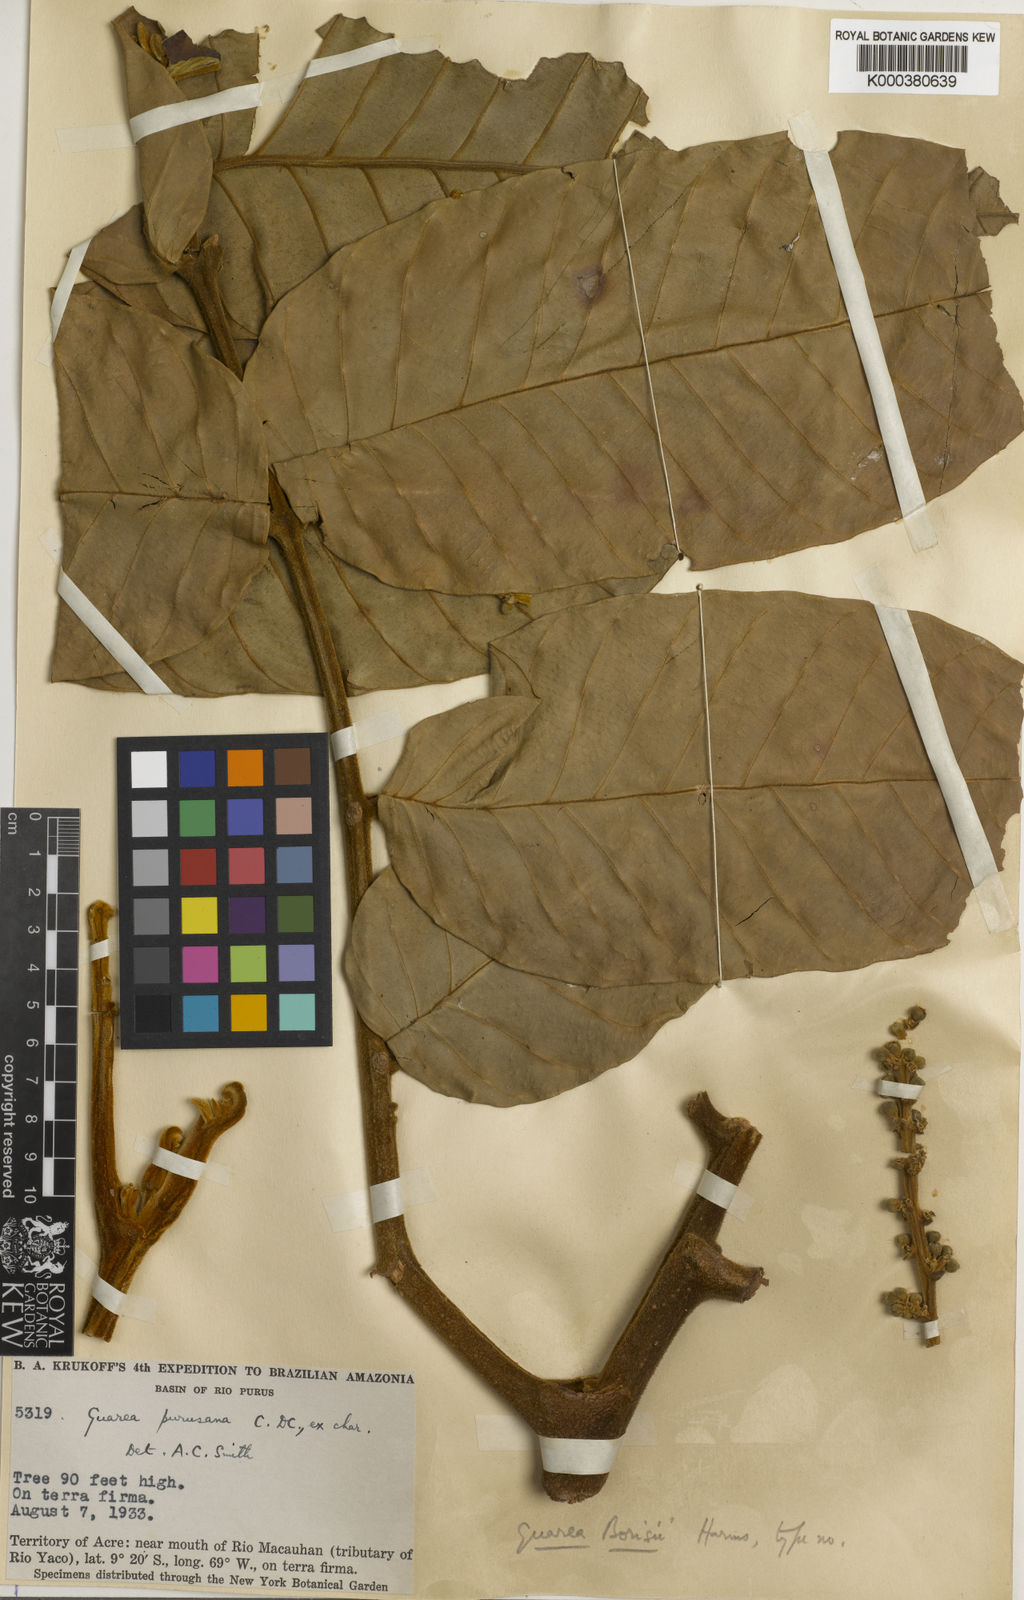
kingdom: Plantae
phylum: Tracheophyta
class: Magnoliopsida
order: Sapindales
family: Meliaceae
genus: Guarea
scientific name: Guarea guidonia
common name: American muskwood
